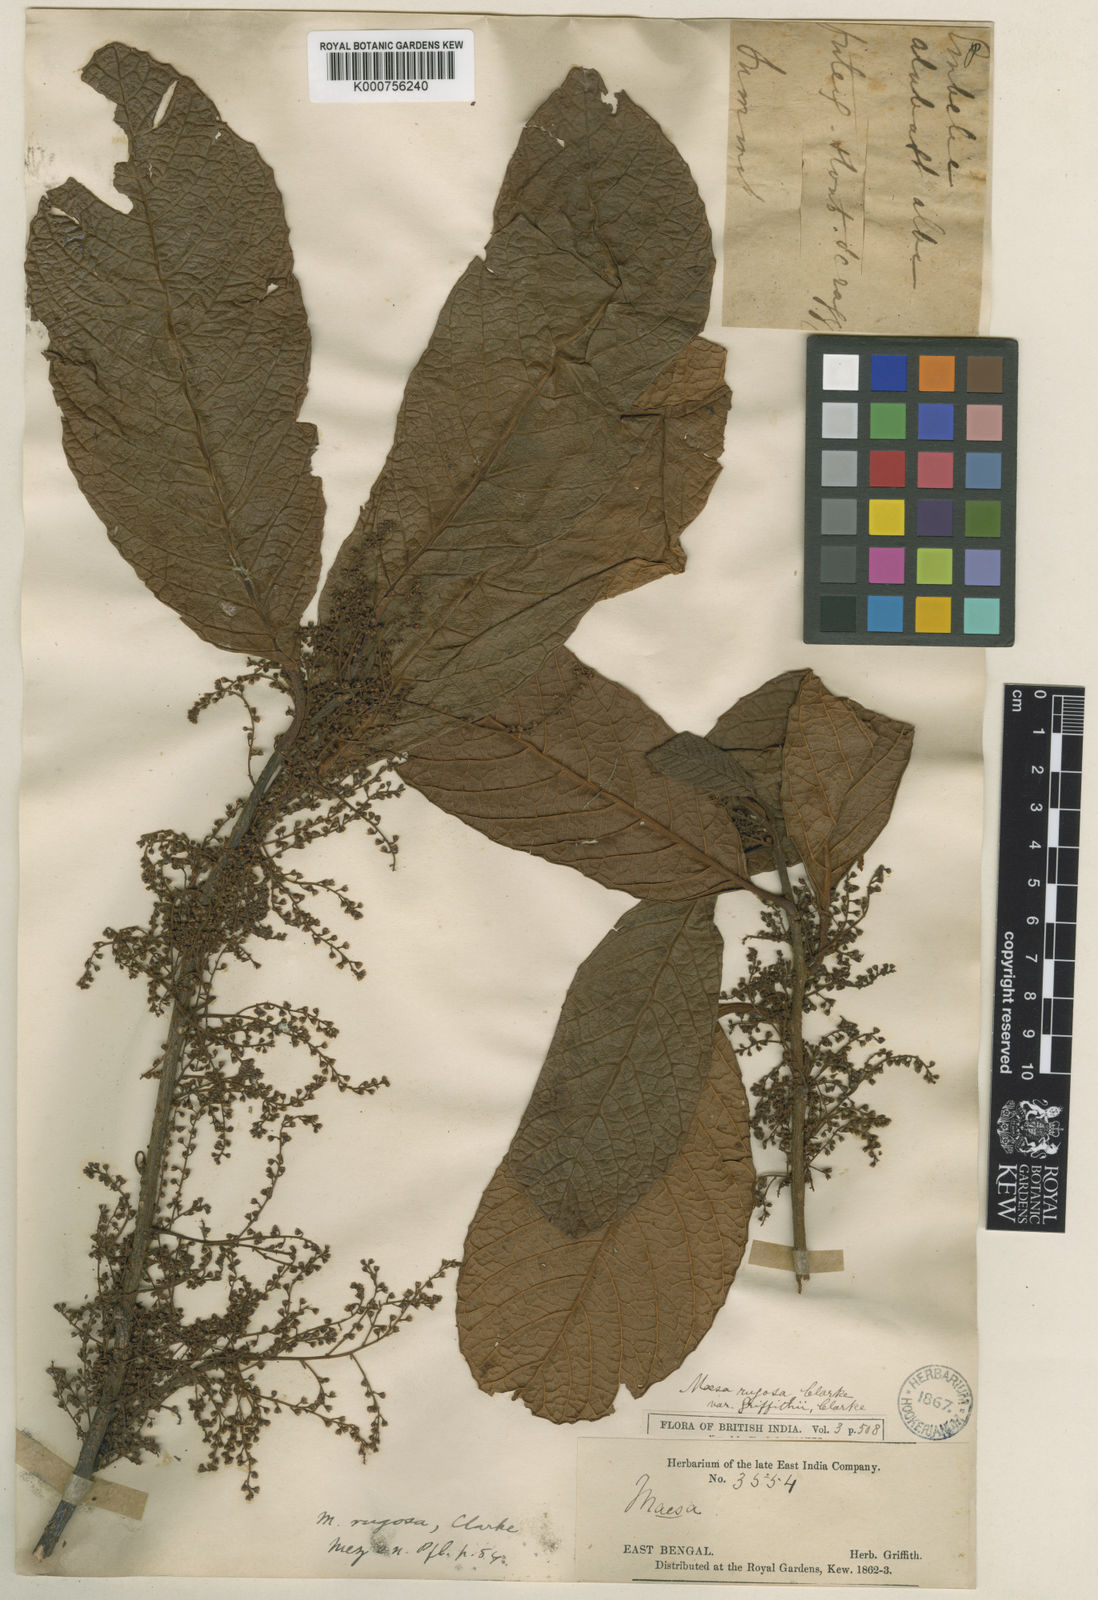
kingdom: Plantae
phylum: Tracheophyta
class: Magnoliopsida
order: Ericales
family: Primulaceae
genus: Maesa
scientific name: Maesa rugosa
